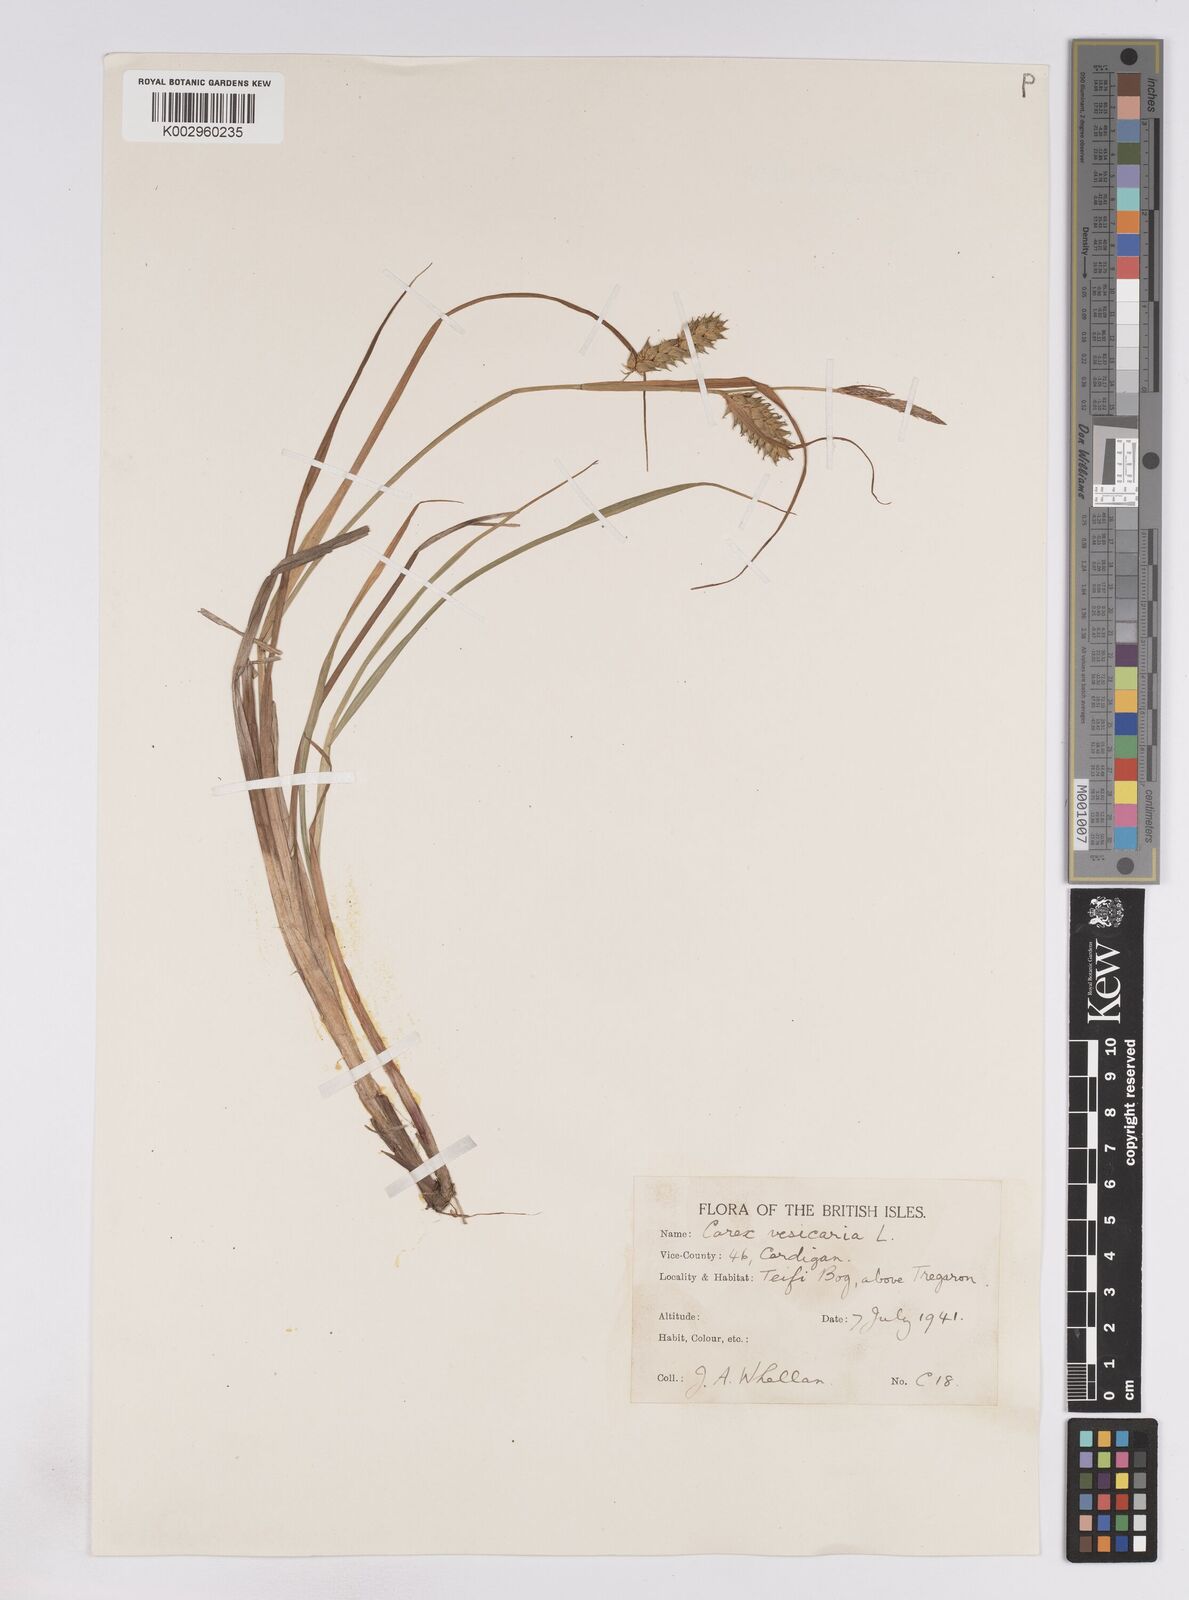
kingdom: Plantae
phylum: Tracheophyta
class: Liliopsida
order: Poales
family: Cyperaceae
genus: Carex
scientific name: Carex vesicaria
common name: Bladder-sedge
